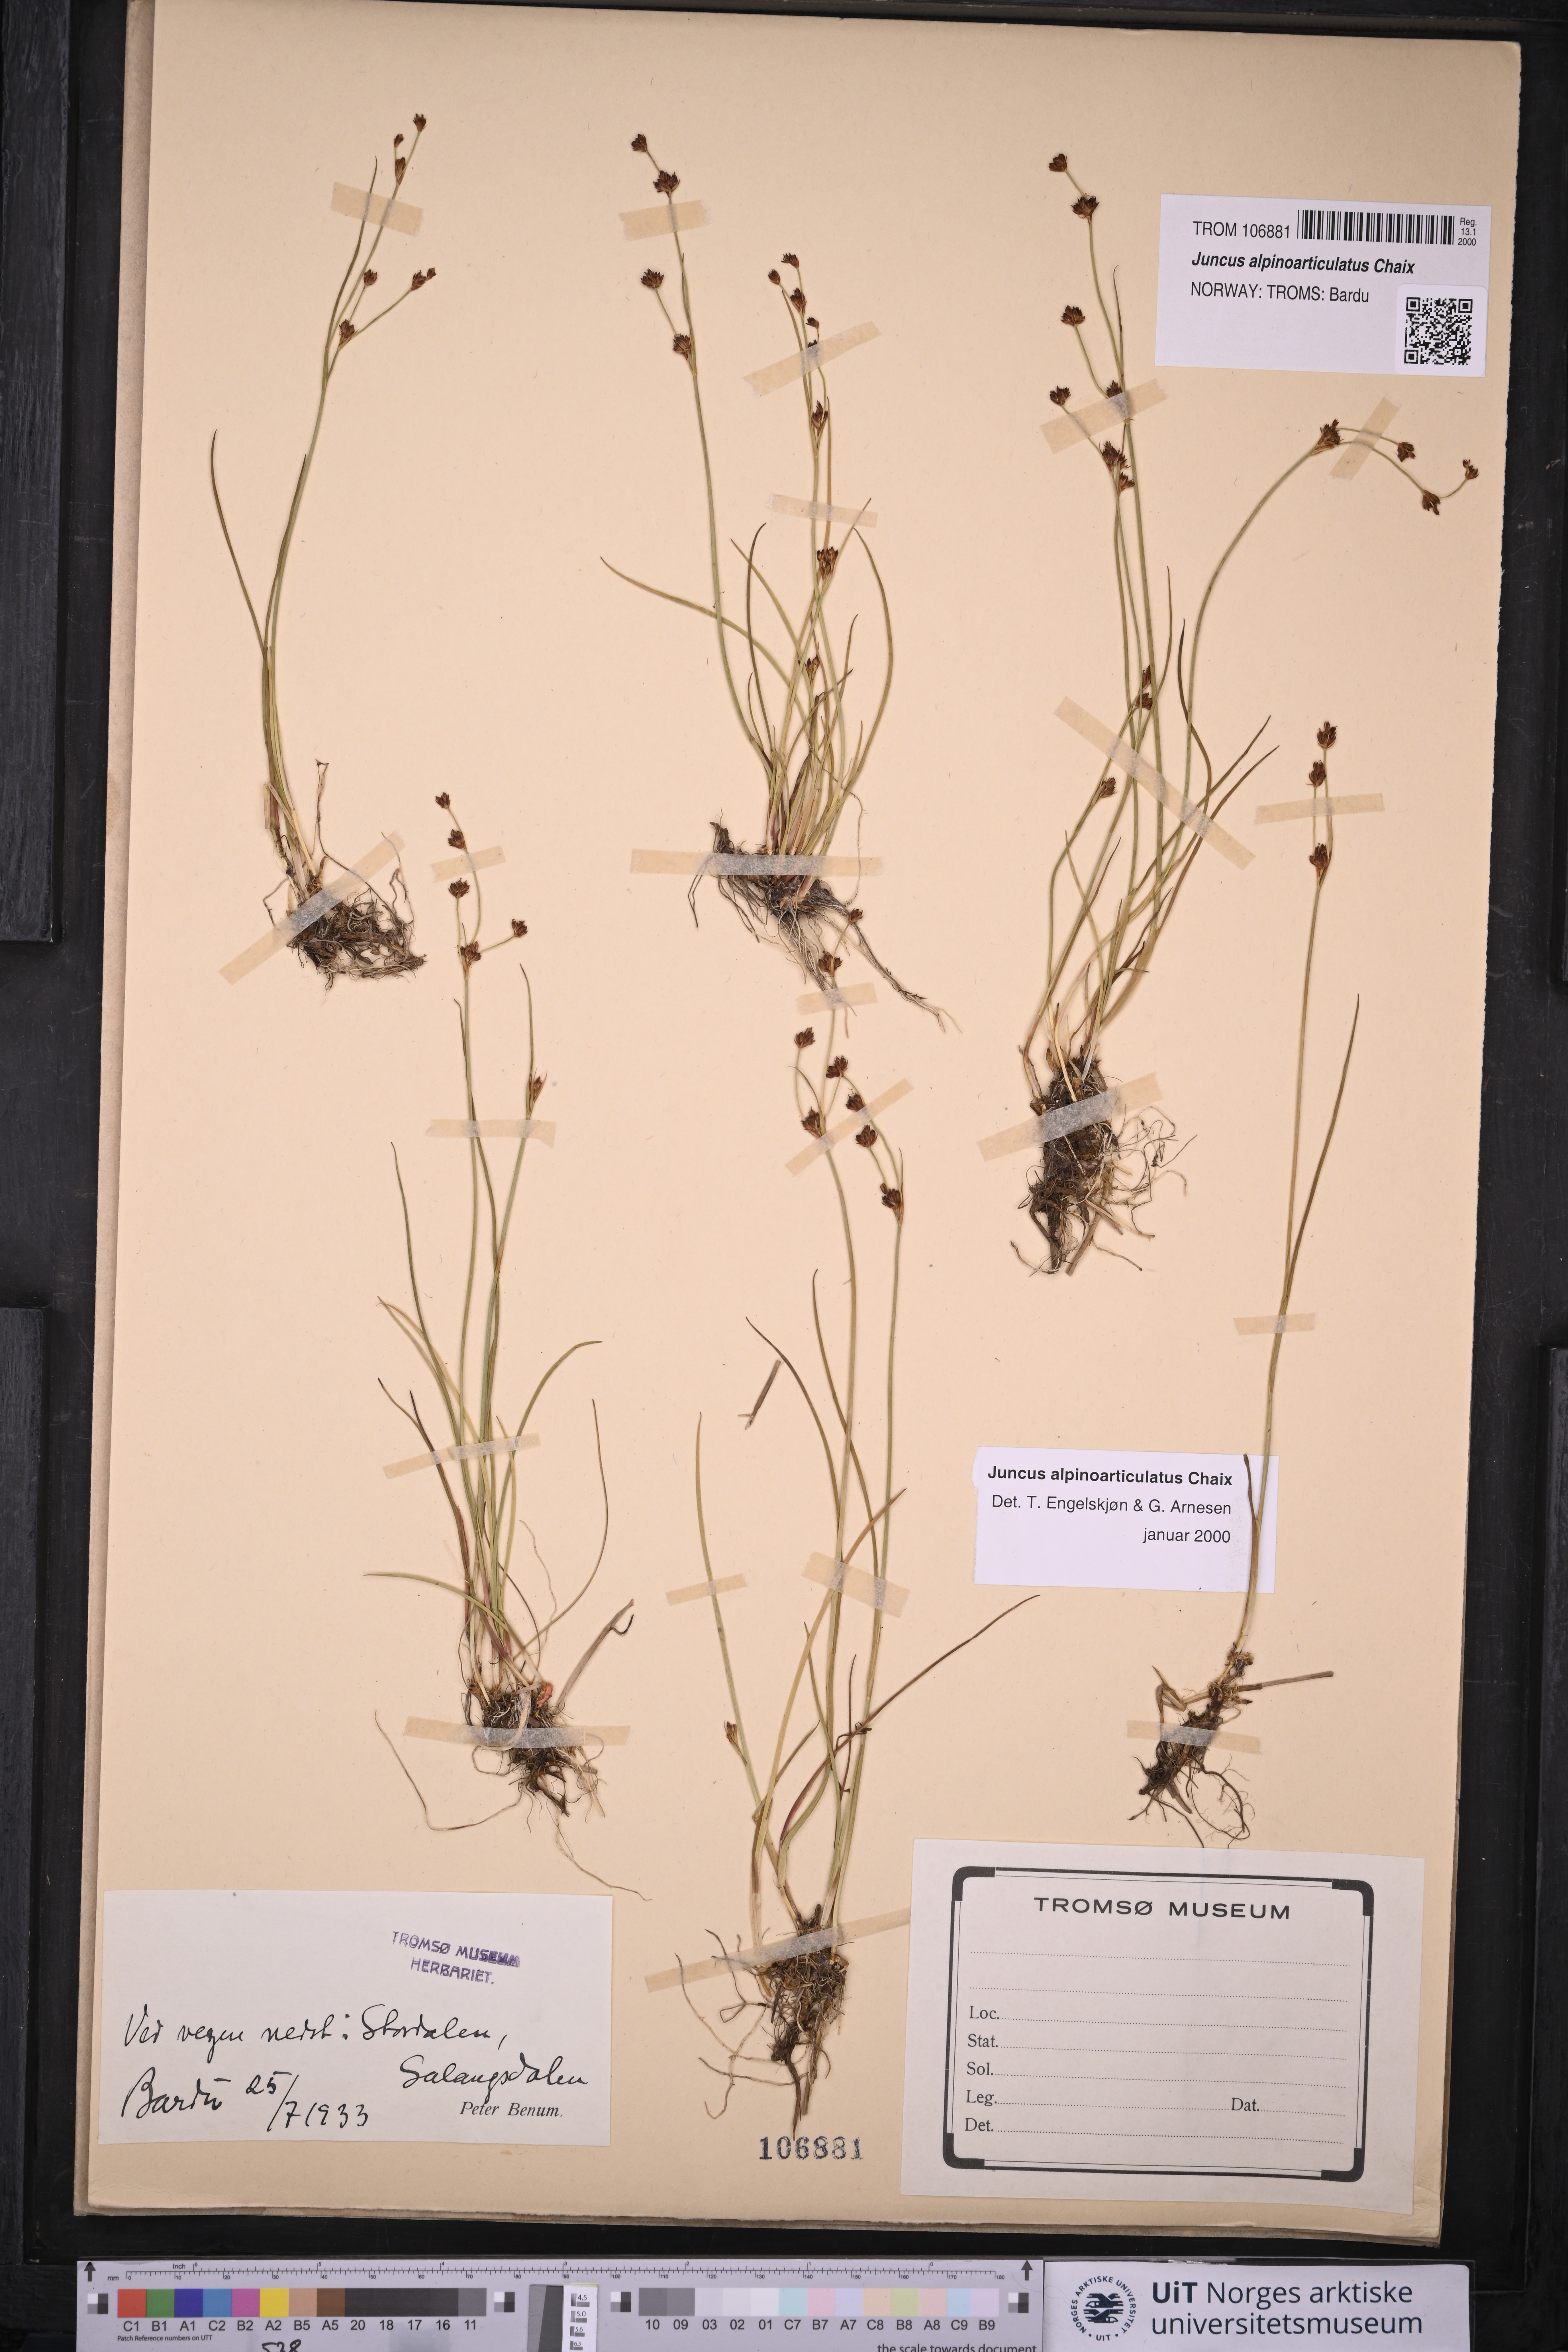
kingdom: Plantae
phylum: Tracheophyta
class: Liliopsida
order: Poales
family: Juncaceae
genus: Juncus
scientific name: Juncus alpinoarticulatus
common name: Alpine rush
